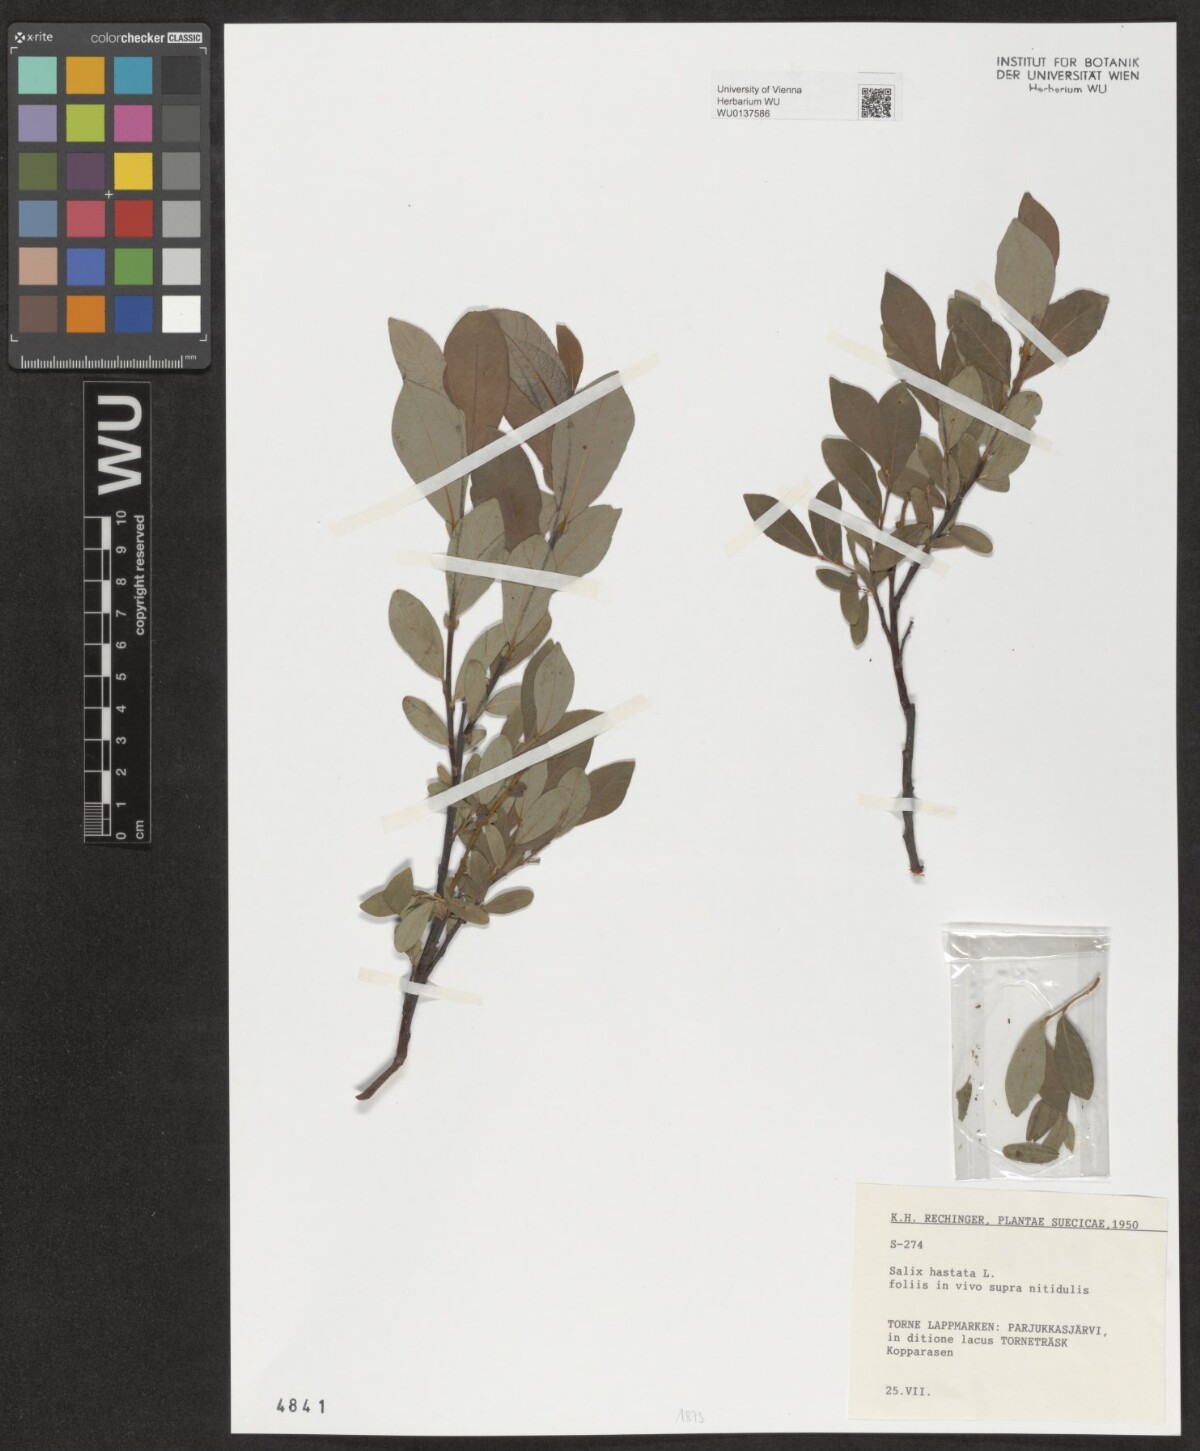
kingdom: Plantae
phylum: Tracheophyta
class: Magnoliopsida
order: Malpighiales
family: Salicaceae
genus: Salix
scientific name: Salix hastata
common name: Halberd willow
